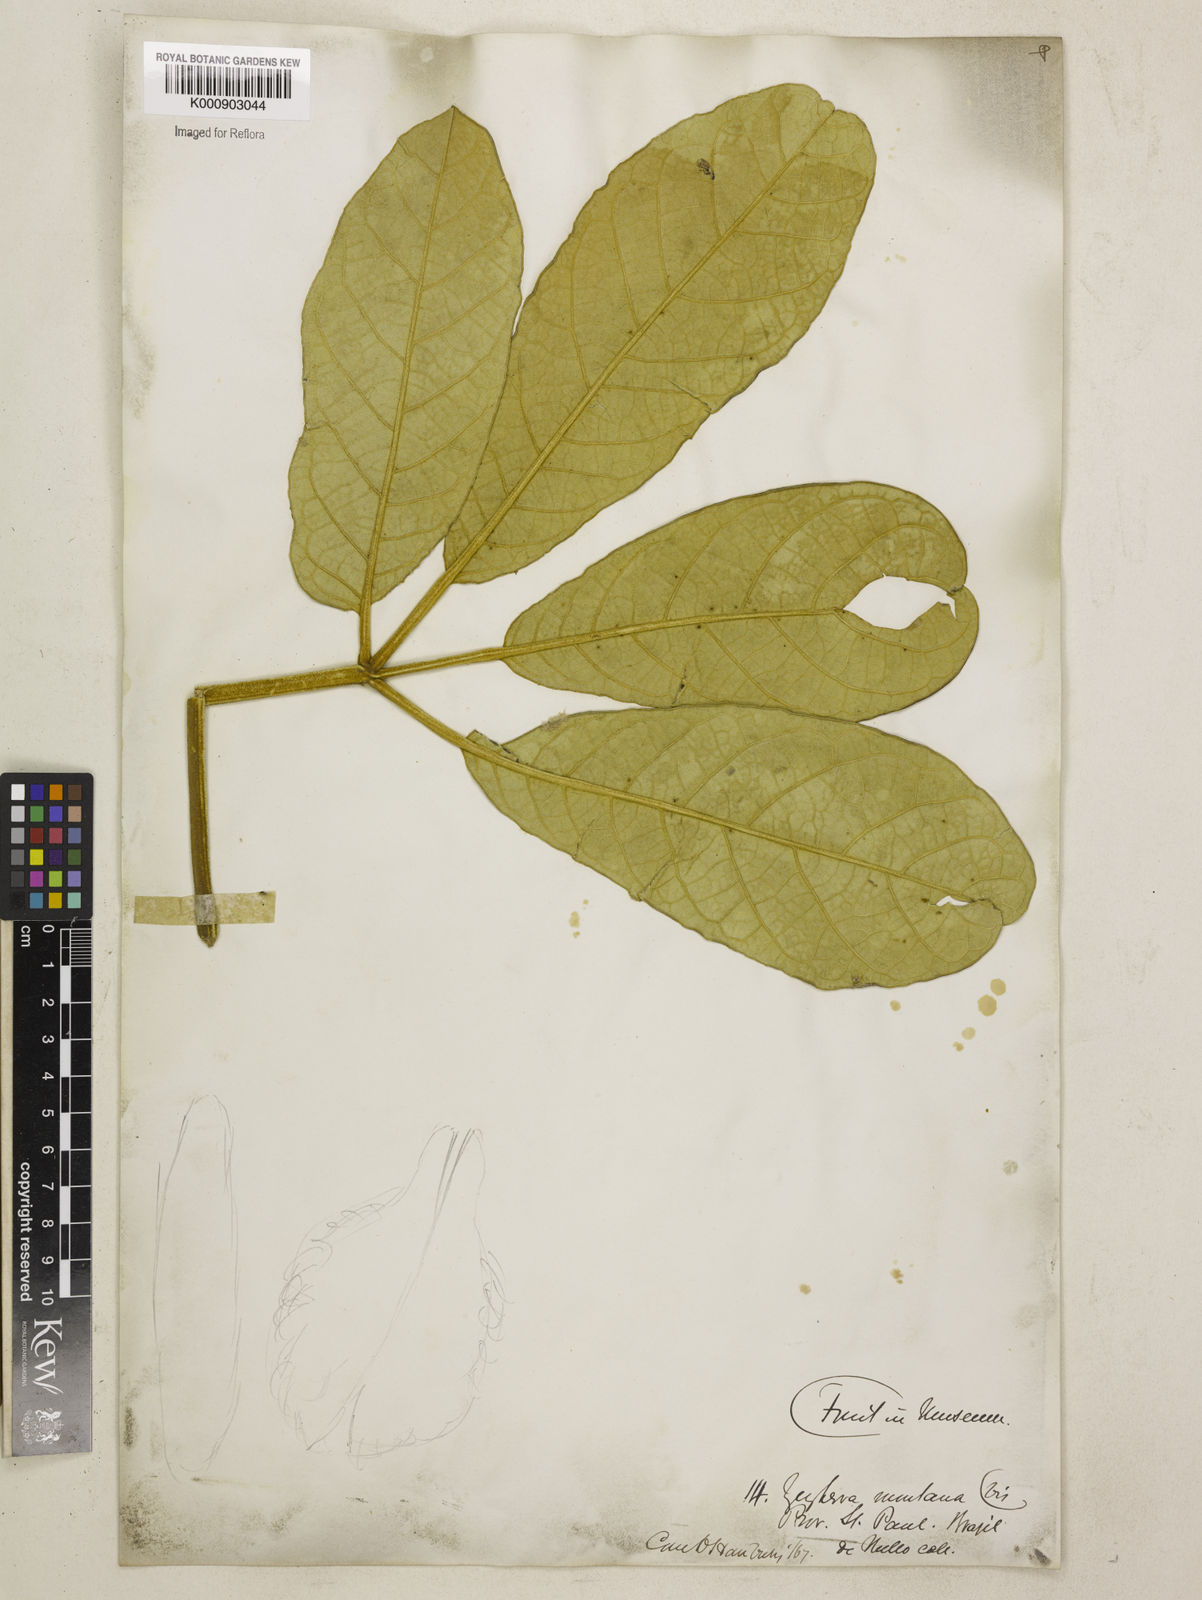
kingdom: Plantae
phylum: Tracheophyta
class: Magnoliopsida
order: Lamiales
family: Bignoniaceae
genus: Zeyheria
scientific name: Zeyheria
